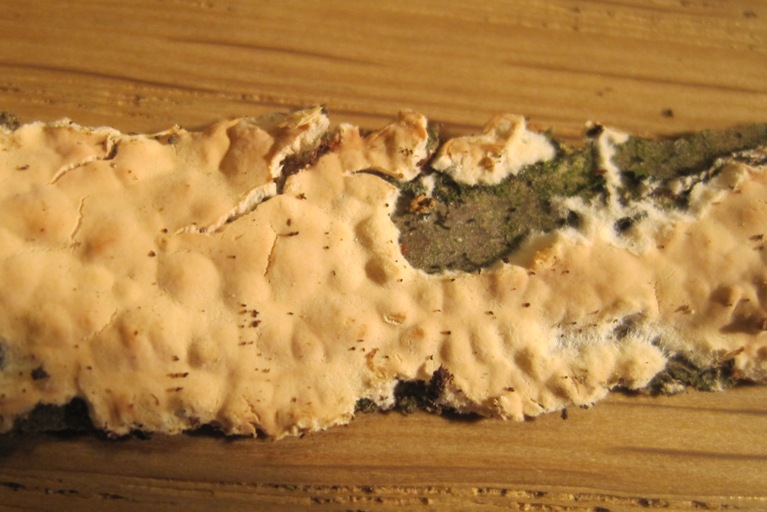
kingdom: Fungi
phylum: Basidiomycota
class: Agaricomycetes
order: Agaricales
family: Physalacriaceae
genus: Cylindrobasidium
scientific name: Cylindrobasidium evolvens
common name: sprækkehinde
